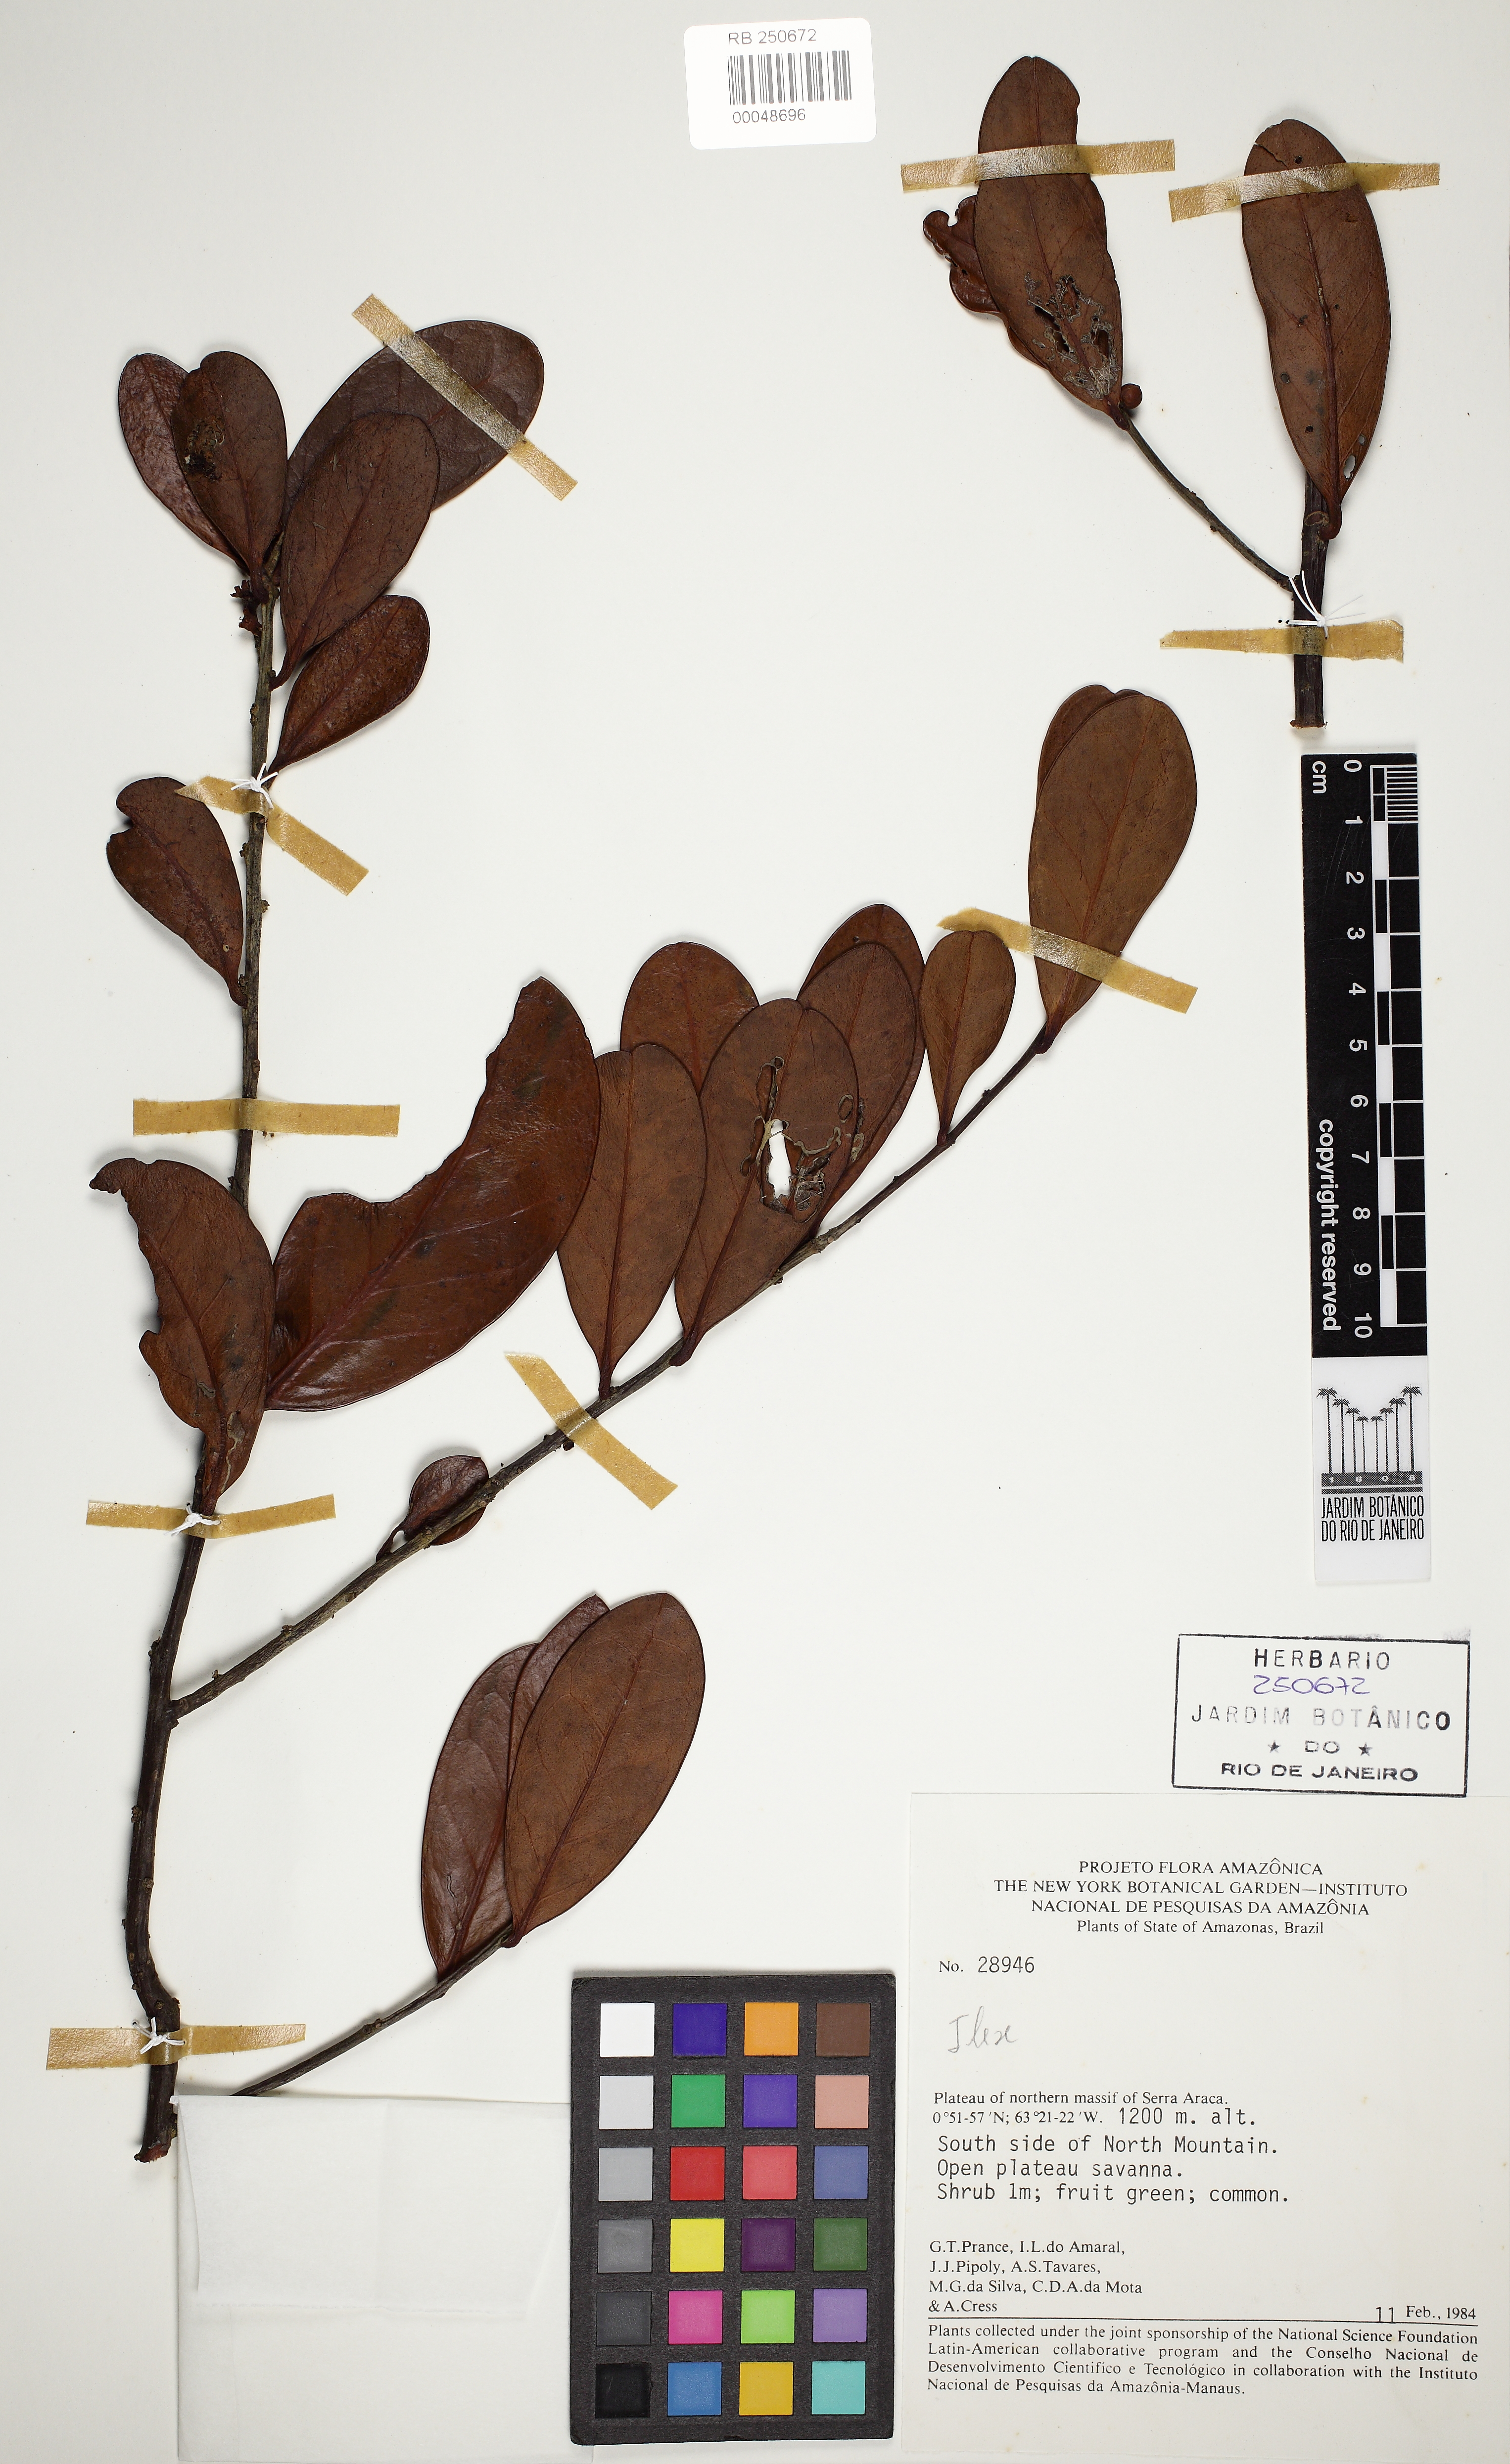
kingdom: Plantae
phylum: Tracheophyta
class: Magnoliopsida
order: Aquifoliales
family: Aquifoliaceae
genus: Ilex
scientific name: Ilex divaricata
